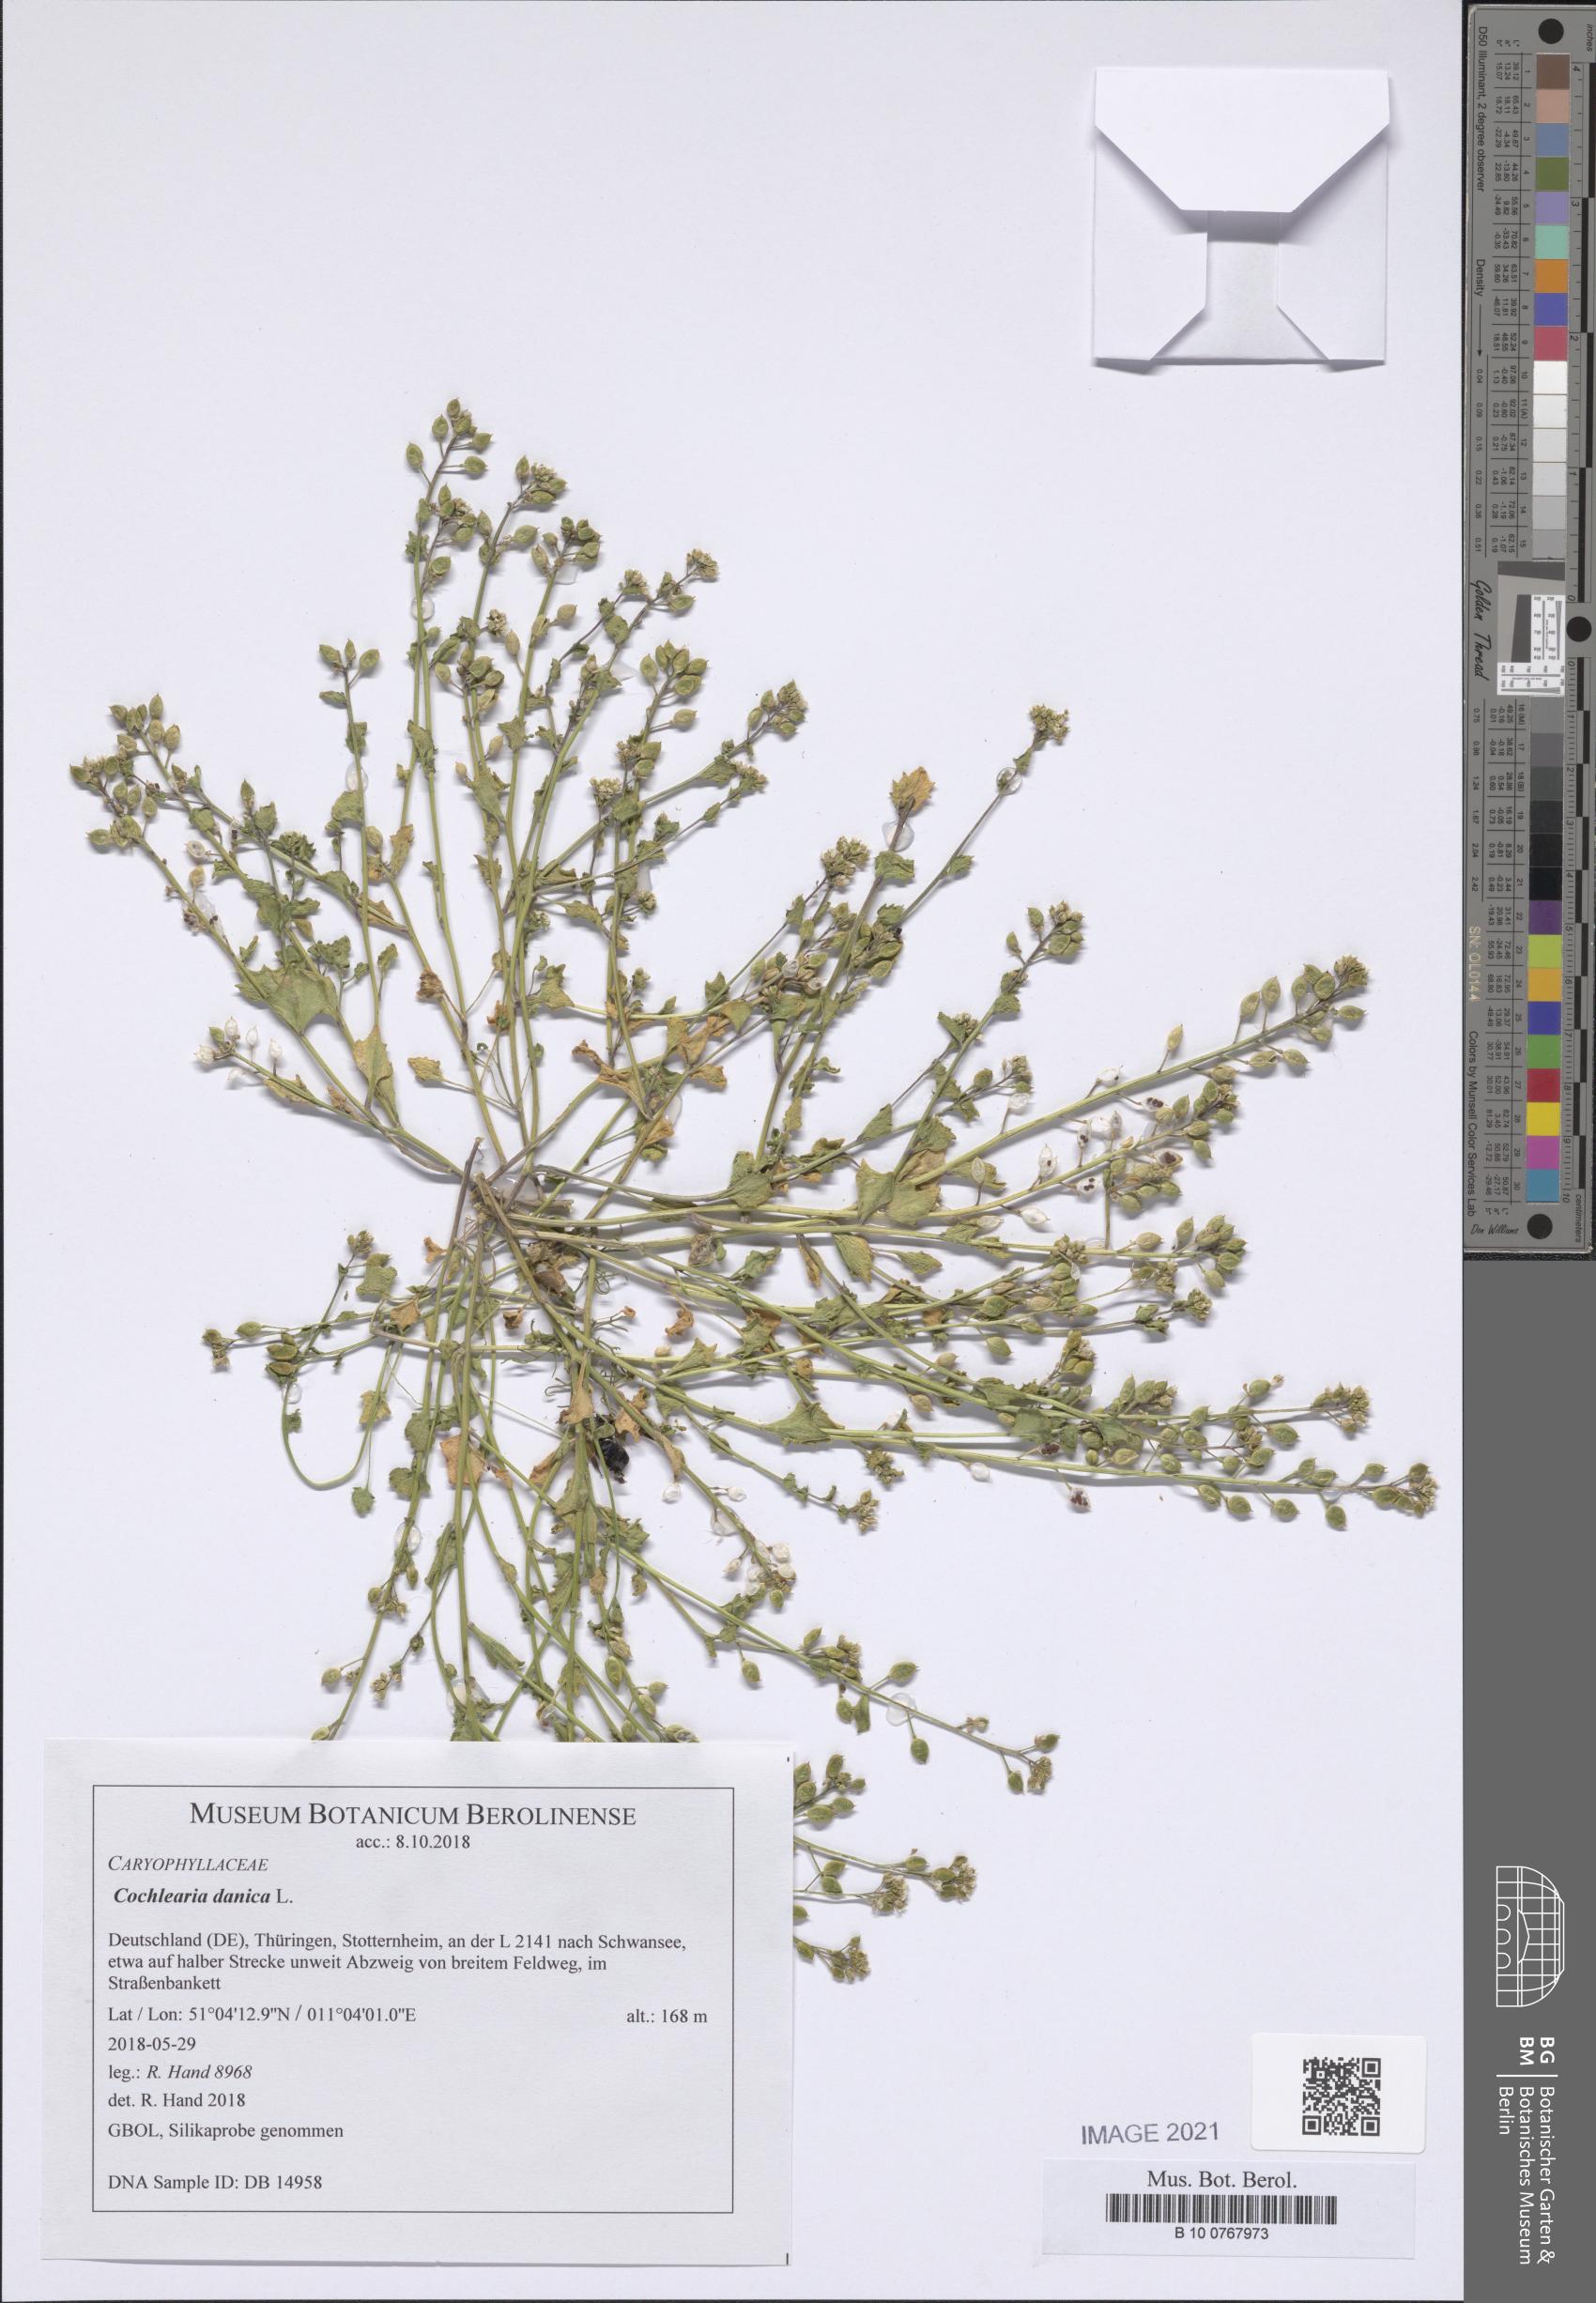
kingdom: Plantae
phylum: Tracheophyta
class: Magnoliopsida
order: Brassicales
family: Brassicaceae
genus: Cochlearia
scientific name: Cochlearia danica
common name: Early scurvygrass
